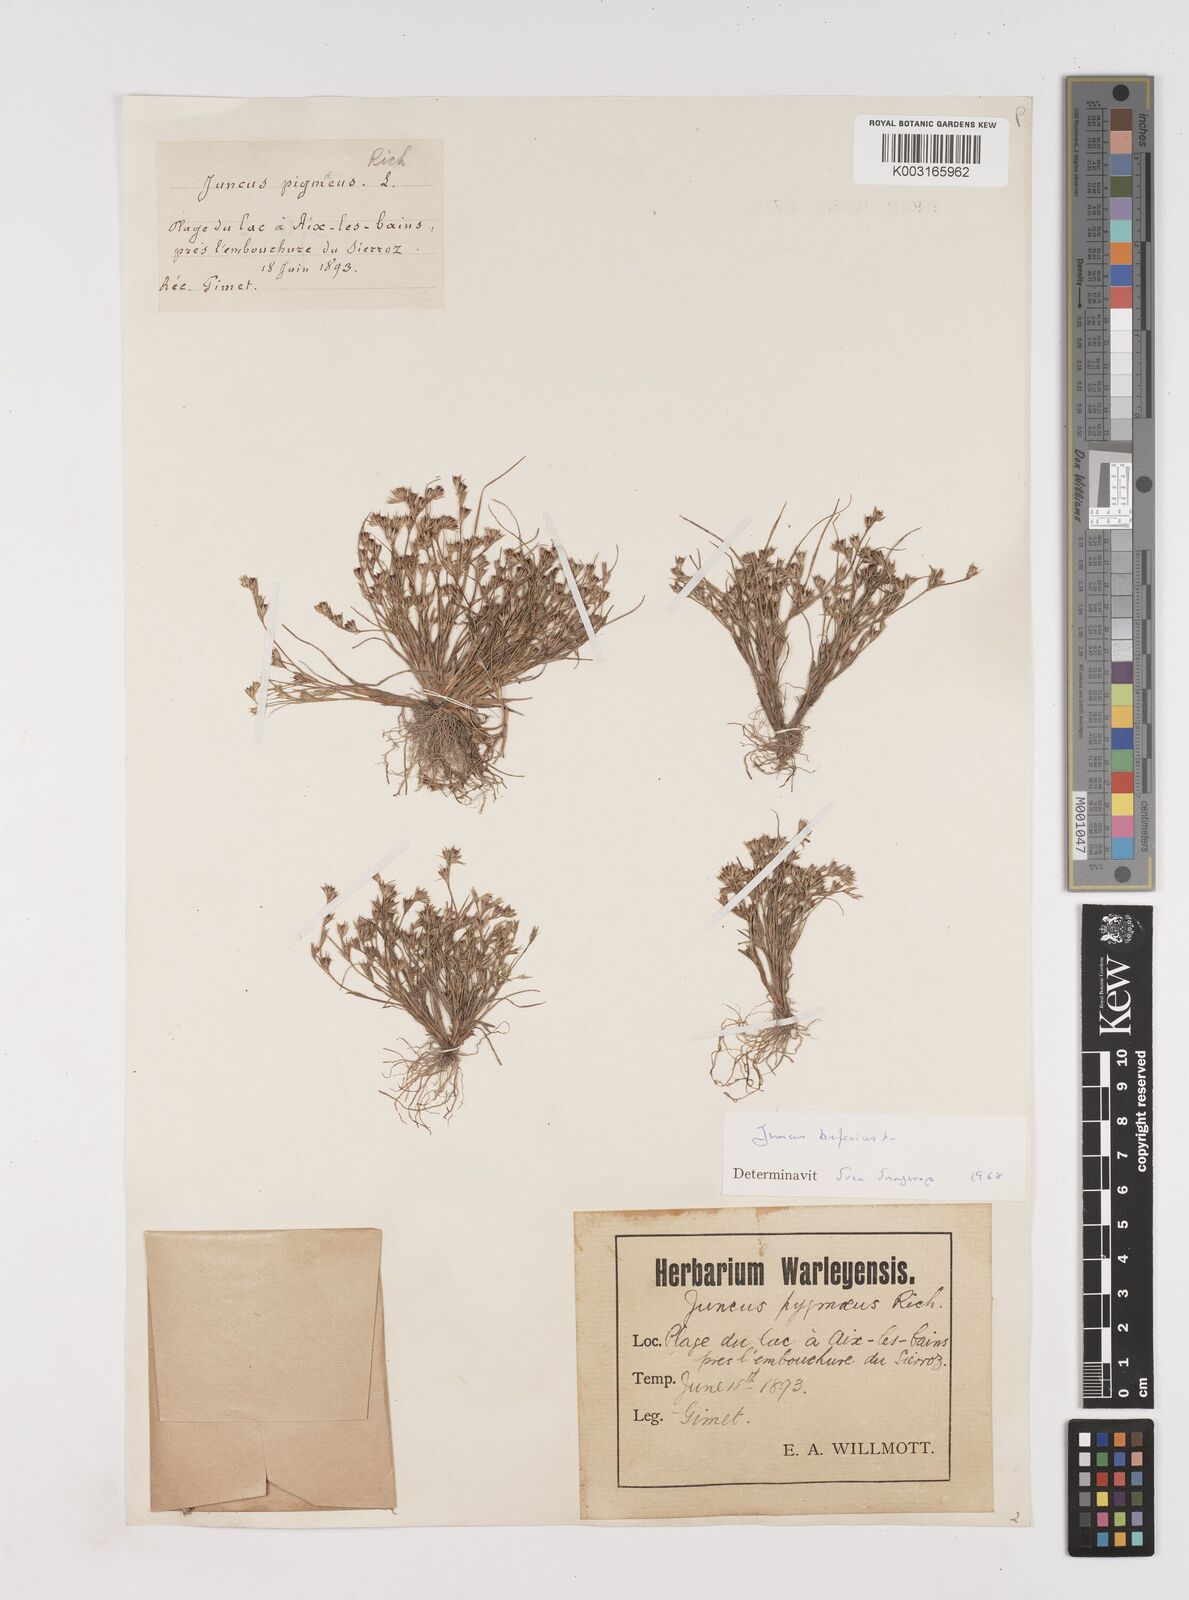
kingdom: Plantae
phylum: Tracheophyta
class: Liliopsida
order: Poales
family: Juncaceae
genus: Juncus
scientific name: Juncus bufonius
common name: Toad rush
